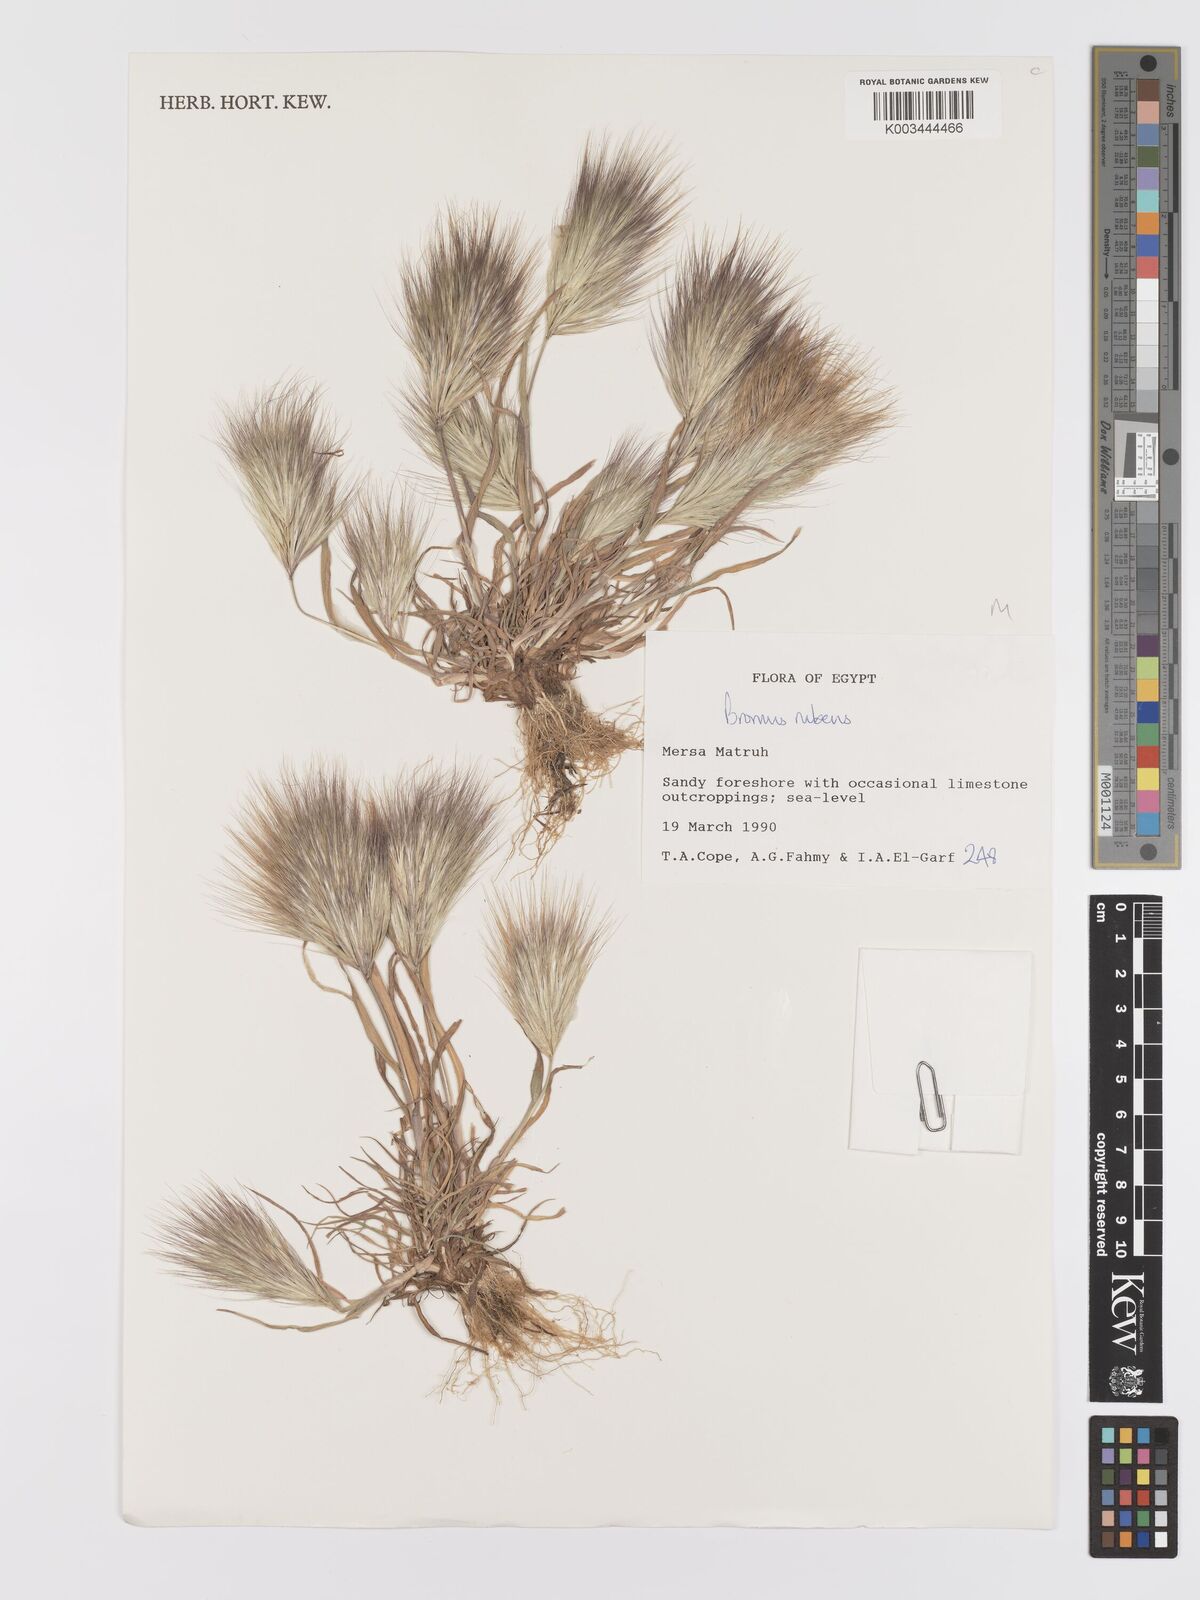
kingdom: Plantae
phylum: Tracheophyta
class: Liliopsida
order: Poales
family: Poaceae
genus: Bromus
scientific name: Bromus rubens
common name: Red brome
